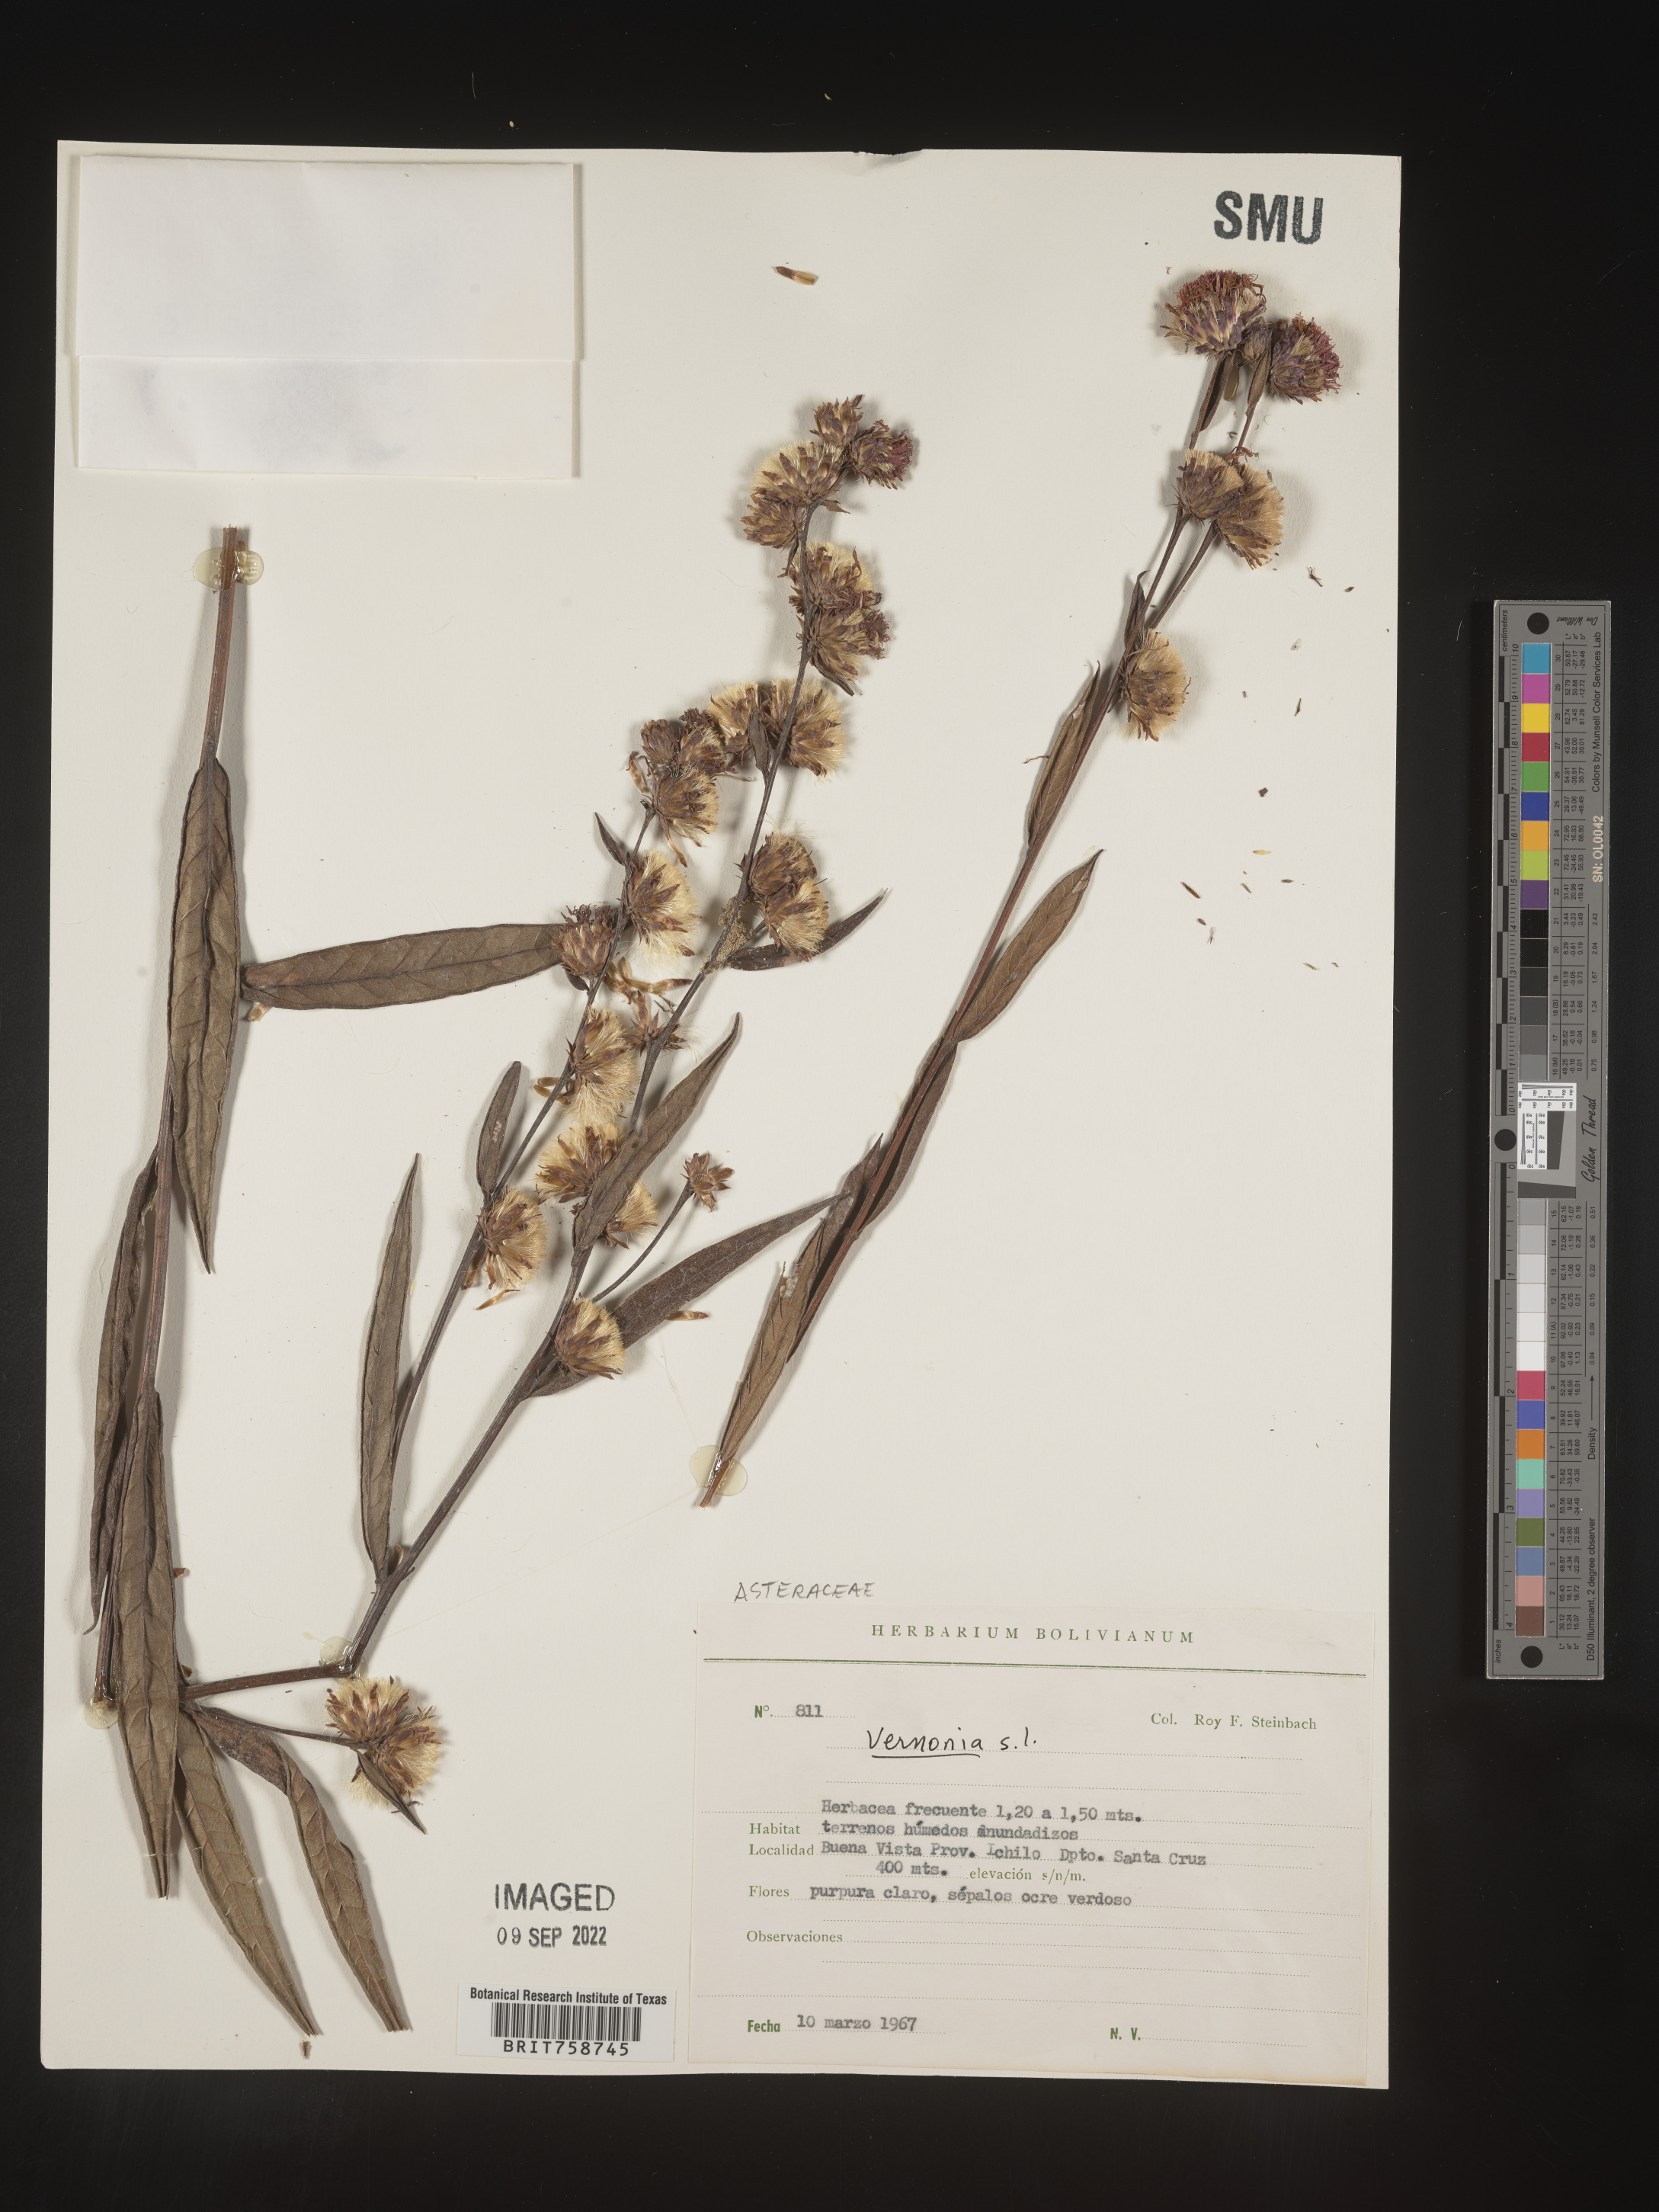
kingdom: Plantae
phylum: Tracheophyta
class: Magnoliopsida
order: Asterales
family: Asteraceae
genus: Vernonia
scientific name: Vernonia
